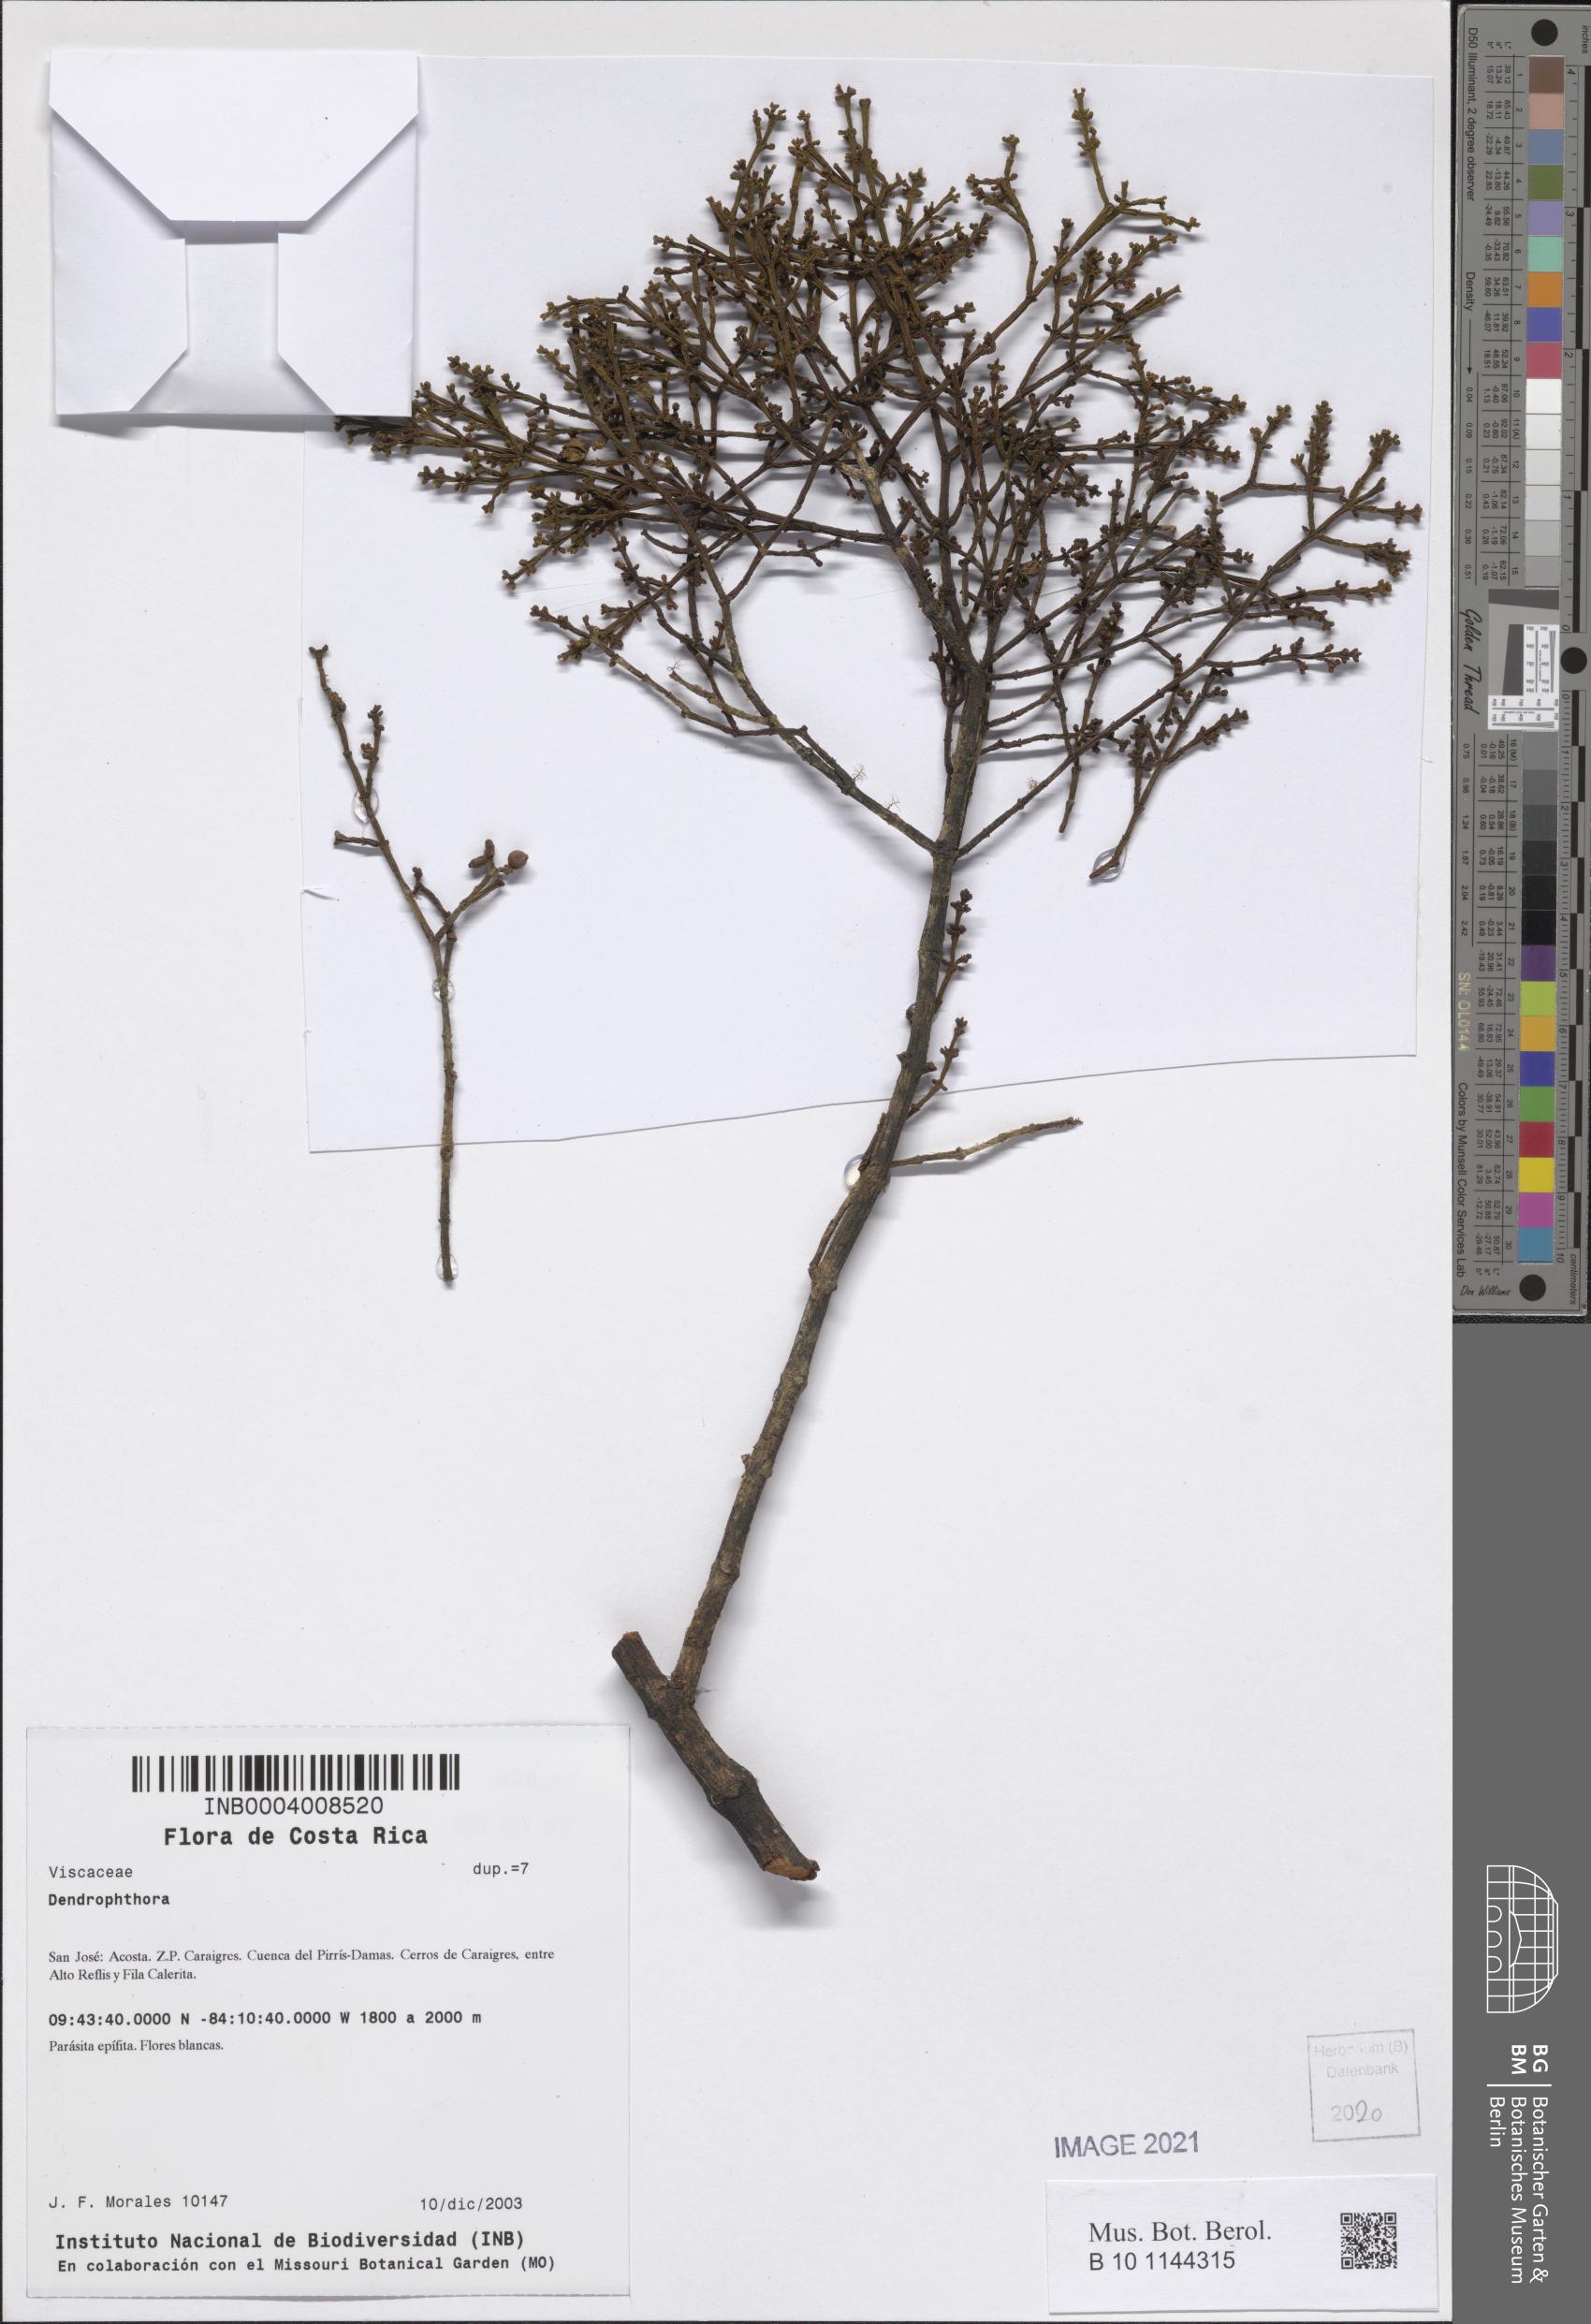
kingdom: Plantae
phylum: Tracheophyta
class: Magnoliopsida
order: Santalales
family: Viscaceae
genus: Dendrophthora
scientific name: Dendrophthora
